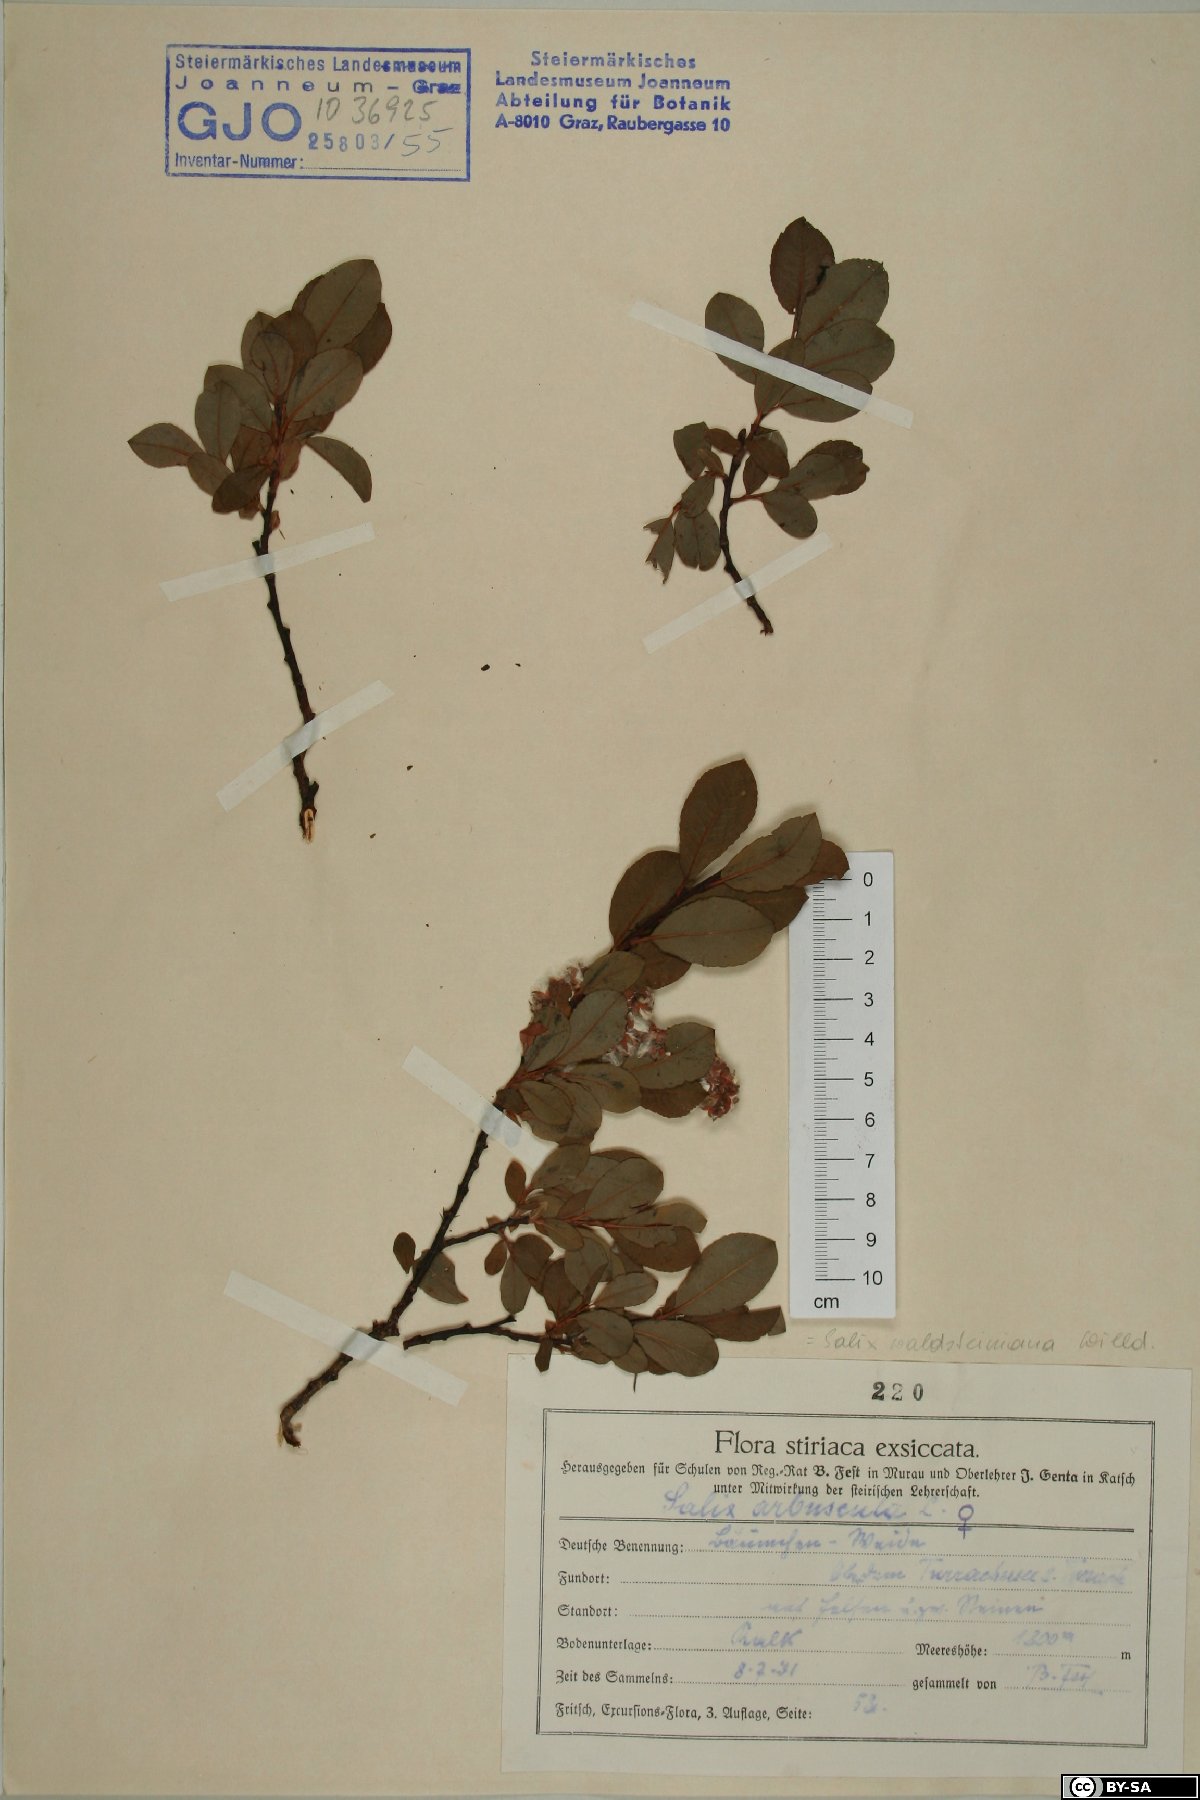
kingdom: Plantae
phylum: Tracheophyta
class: Magnoliopsida
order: Malpighiales
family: Salicaceae
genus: Salix
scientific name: Salix waldsteiniana
